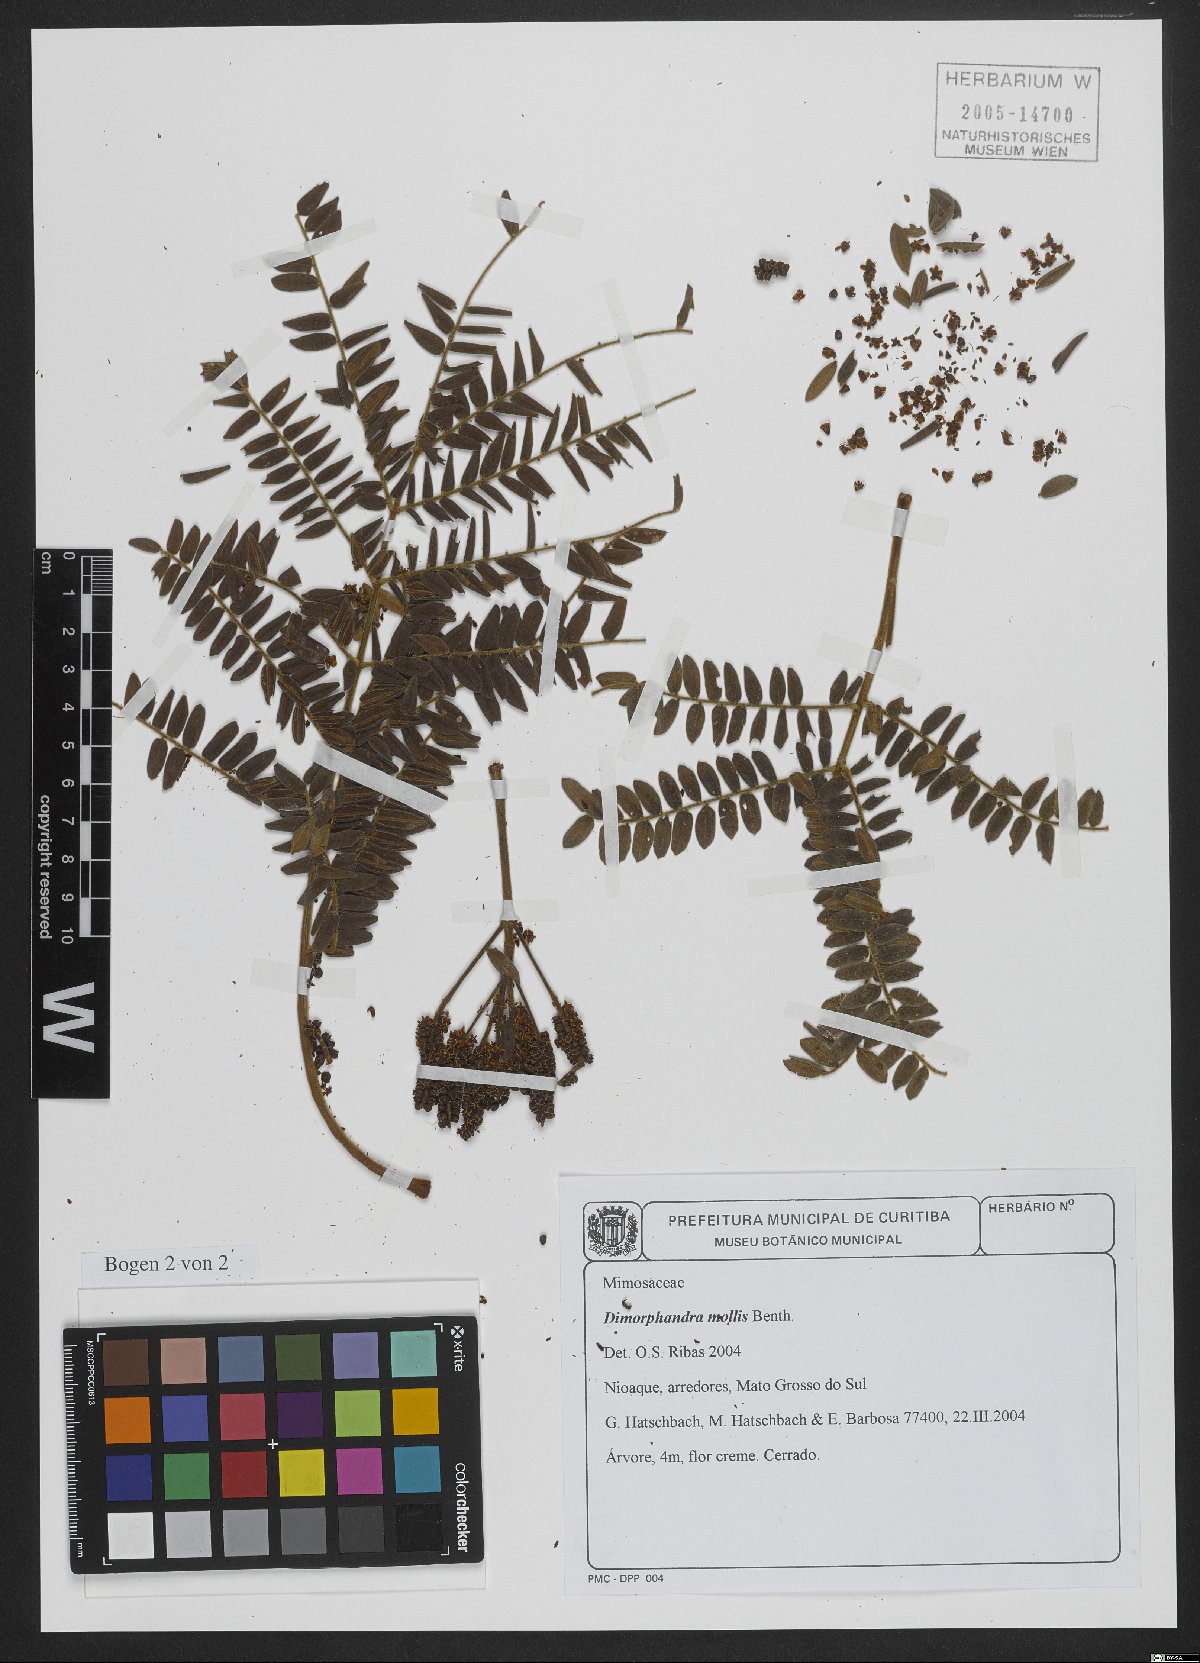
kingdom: Plantae
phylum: Tracheophyta
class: Magnoliopsida
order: Fabales
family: Fabaceae
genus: Dimorphandra
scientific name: Dimorphandra mollis
